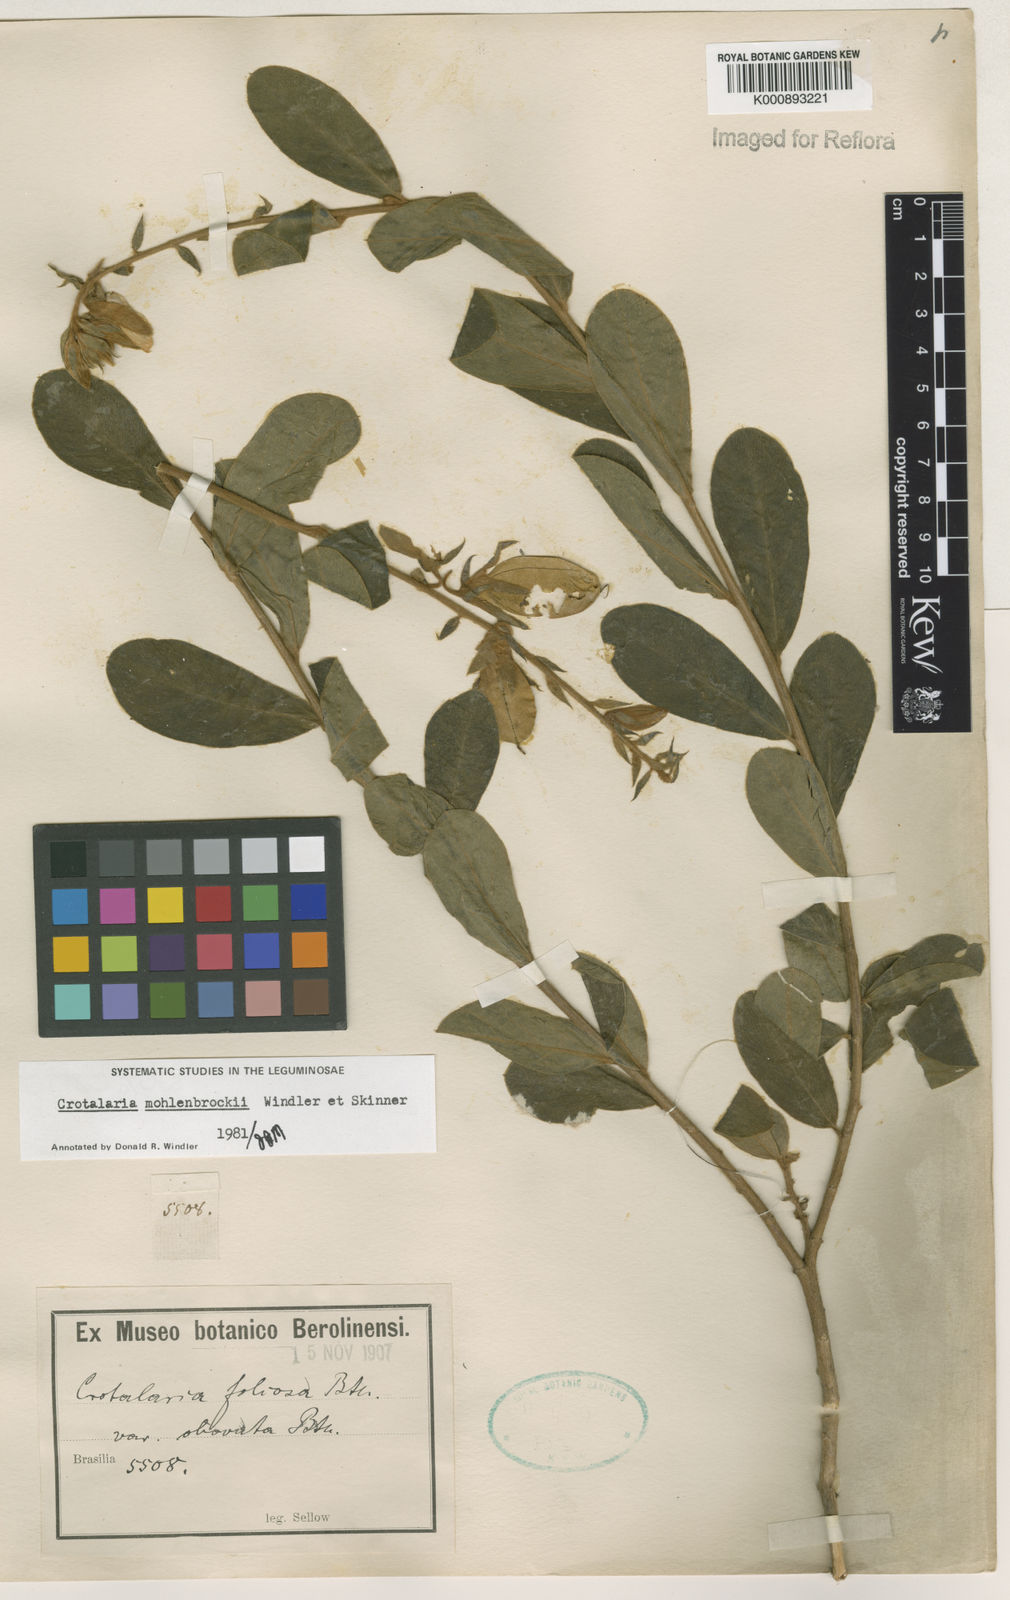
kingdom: Plantae
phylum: Tracheophyta
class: Magnoliopsida
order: Fabales
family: Fabaceae
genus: Crotalaria
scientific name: Crotalaria martiana
